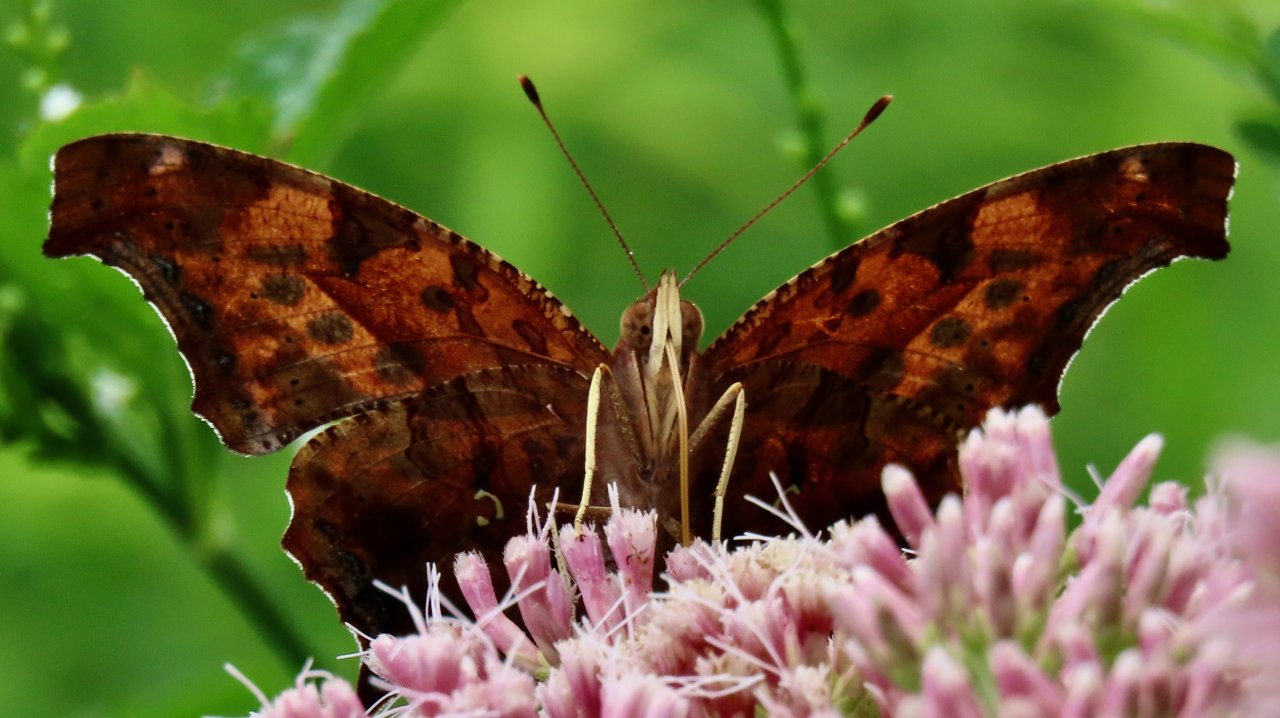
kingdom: Animalia
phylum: Arthropoda
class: Insecta
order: Lepidoptera
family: Nymphalidae
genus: Polygonia
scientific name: Polygonia interrogationis
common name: Question Mark
